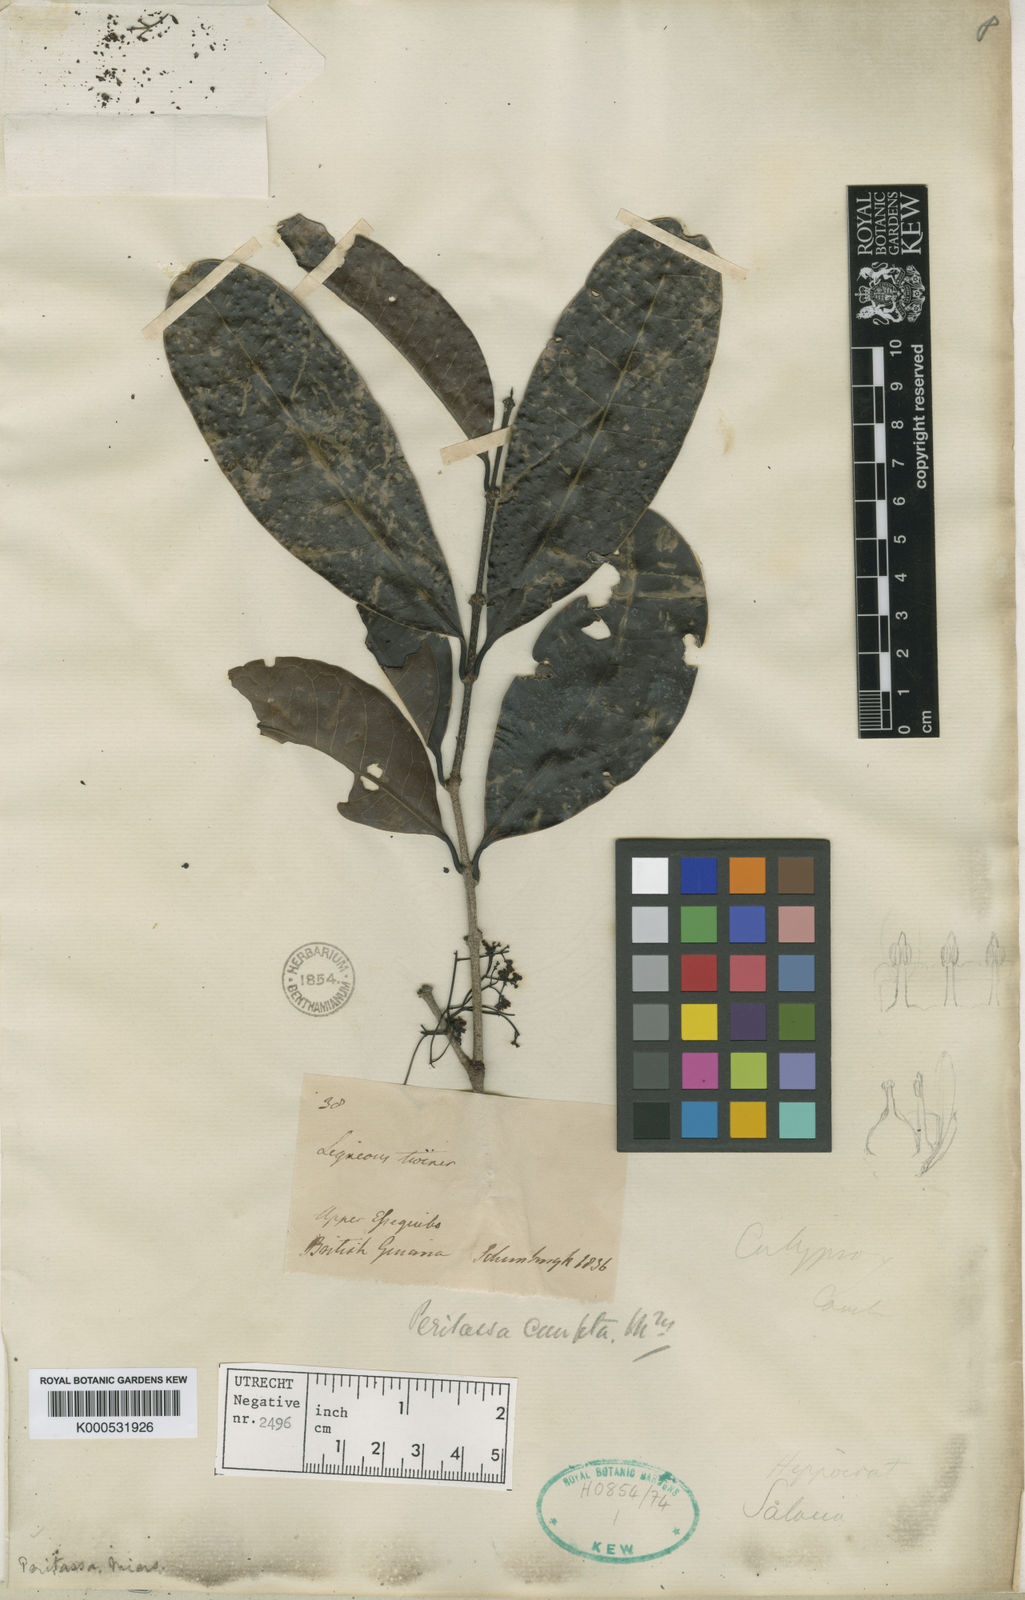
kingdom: Plantae
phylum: Tracheophyta
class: Magnoliopsida
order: Celastrales
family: Celastraceae
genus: Peritassa
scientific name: Peritassa laevigata
